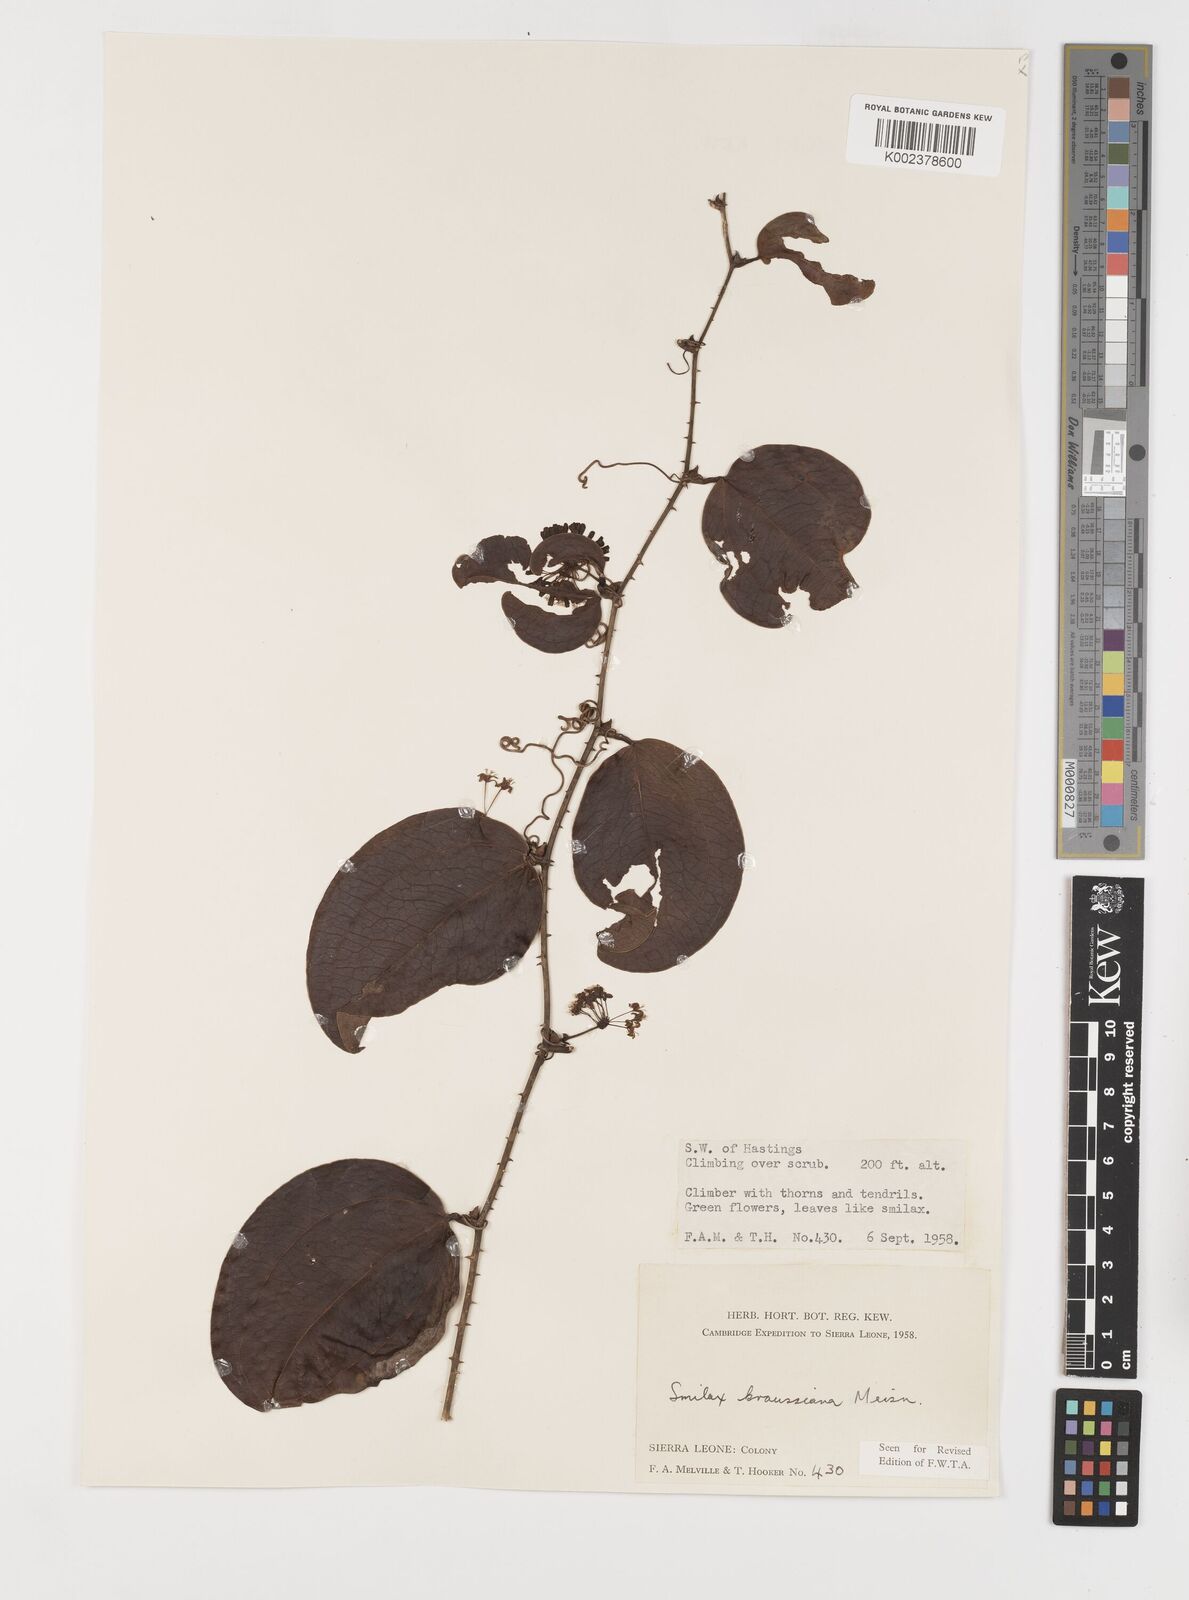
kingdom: Plantae
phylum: Tracheophyta
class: Liliopsida
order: Liliales
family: Smilacaceae
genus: Smilax
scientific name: Smilax anceps
